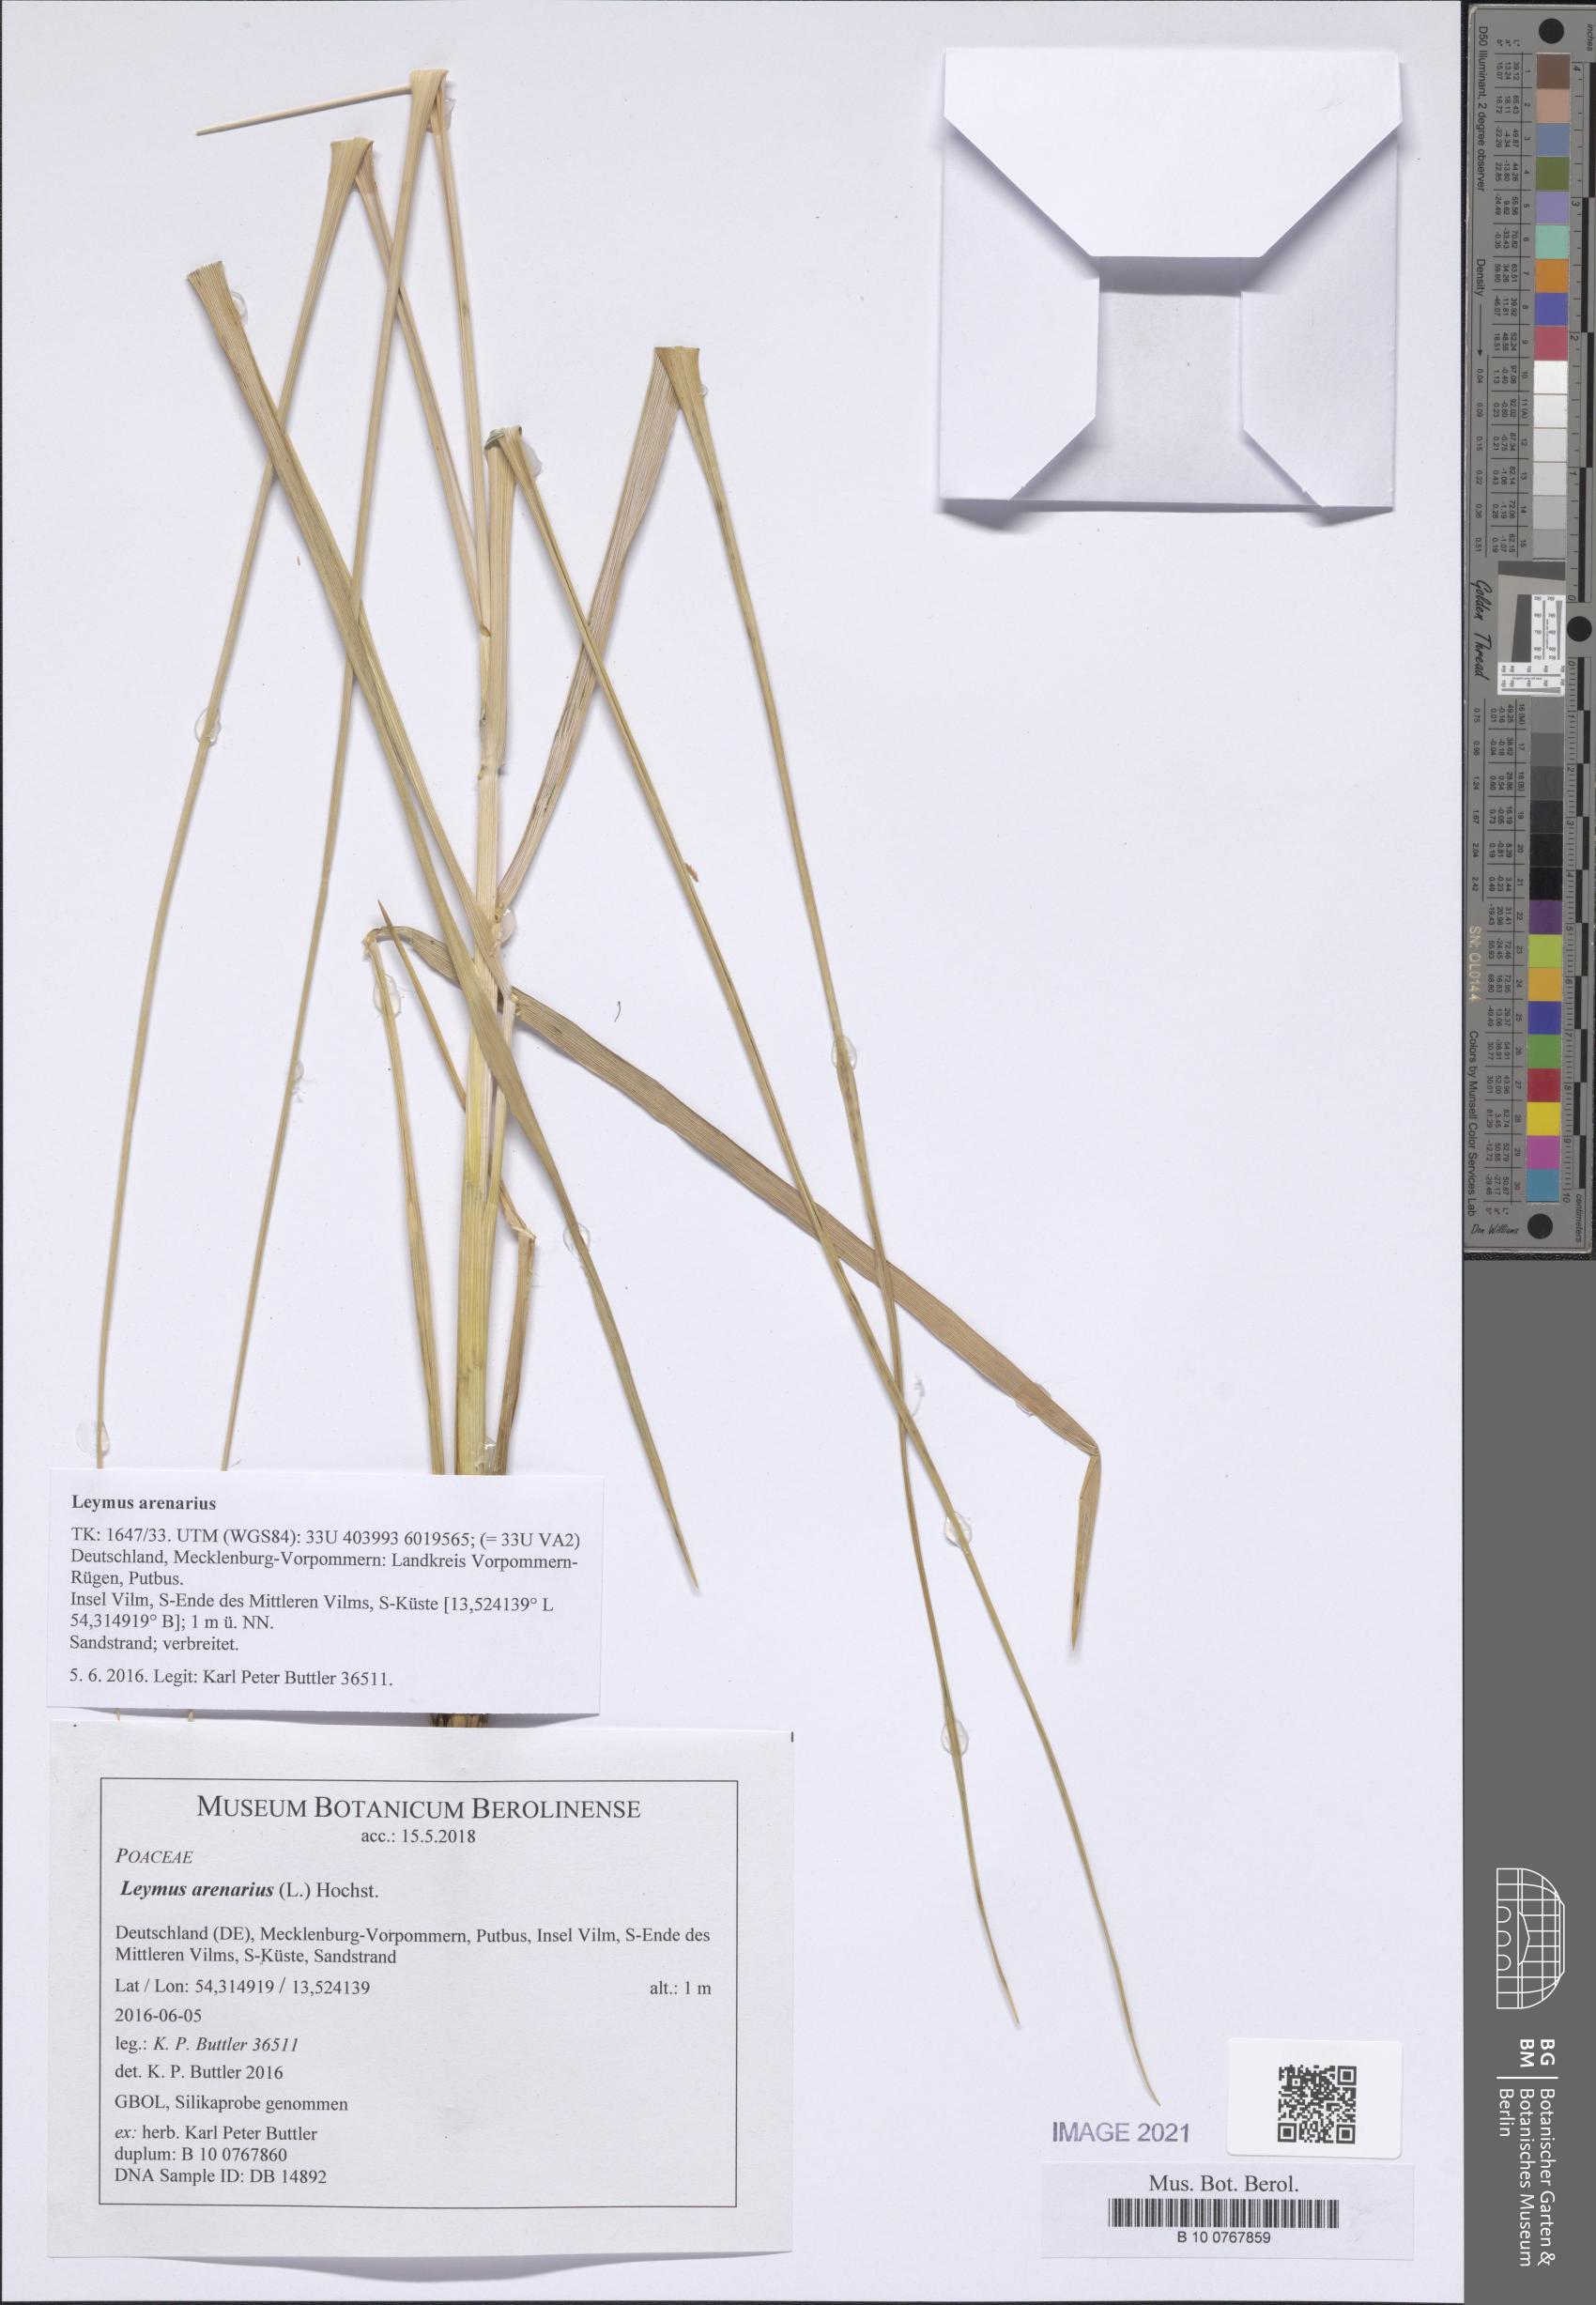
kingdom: Plantae
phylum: Tracheophyta
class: Liliopsida
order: Poales
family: Poaceae
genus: Leymus
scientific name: Leymus arenarius
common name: Lyme-grass
